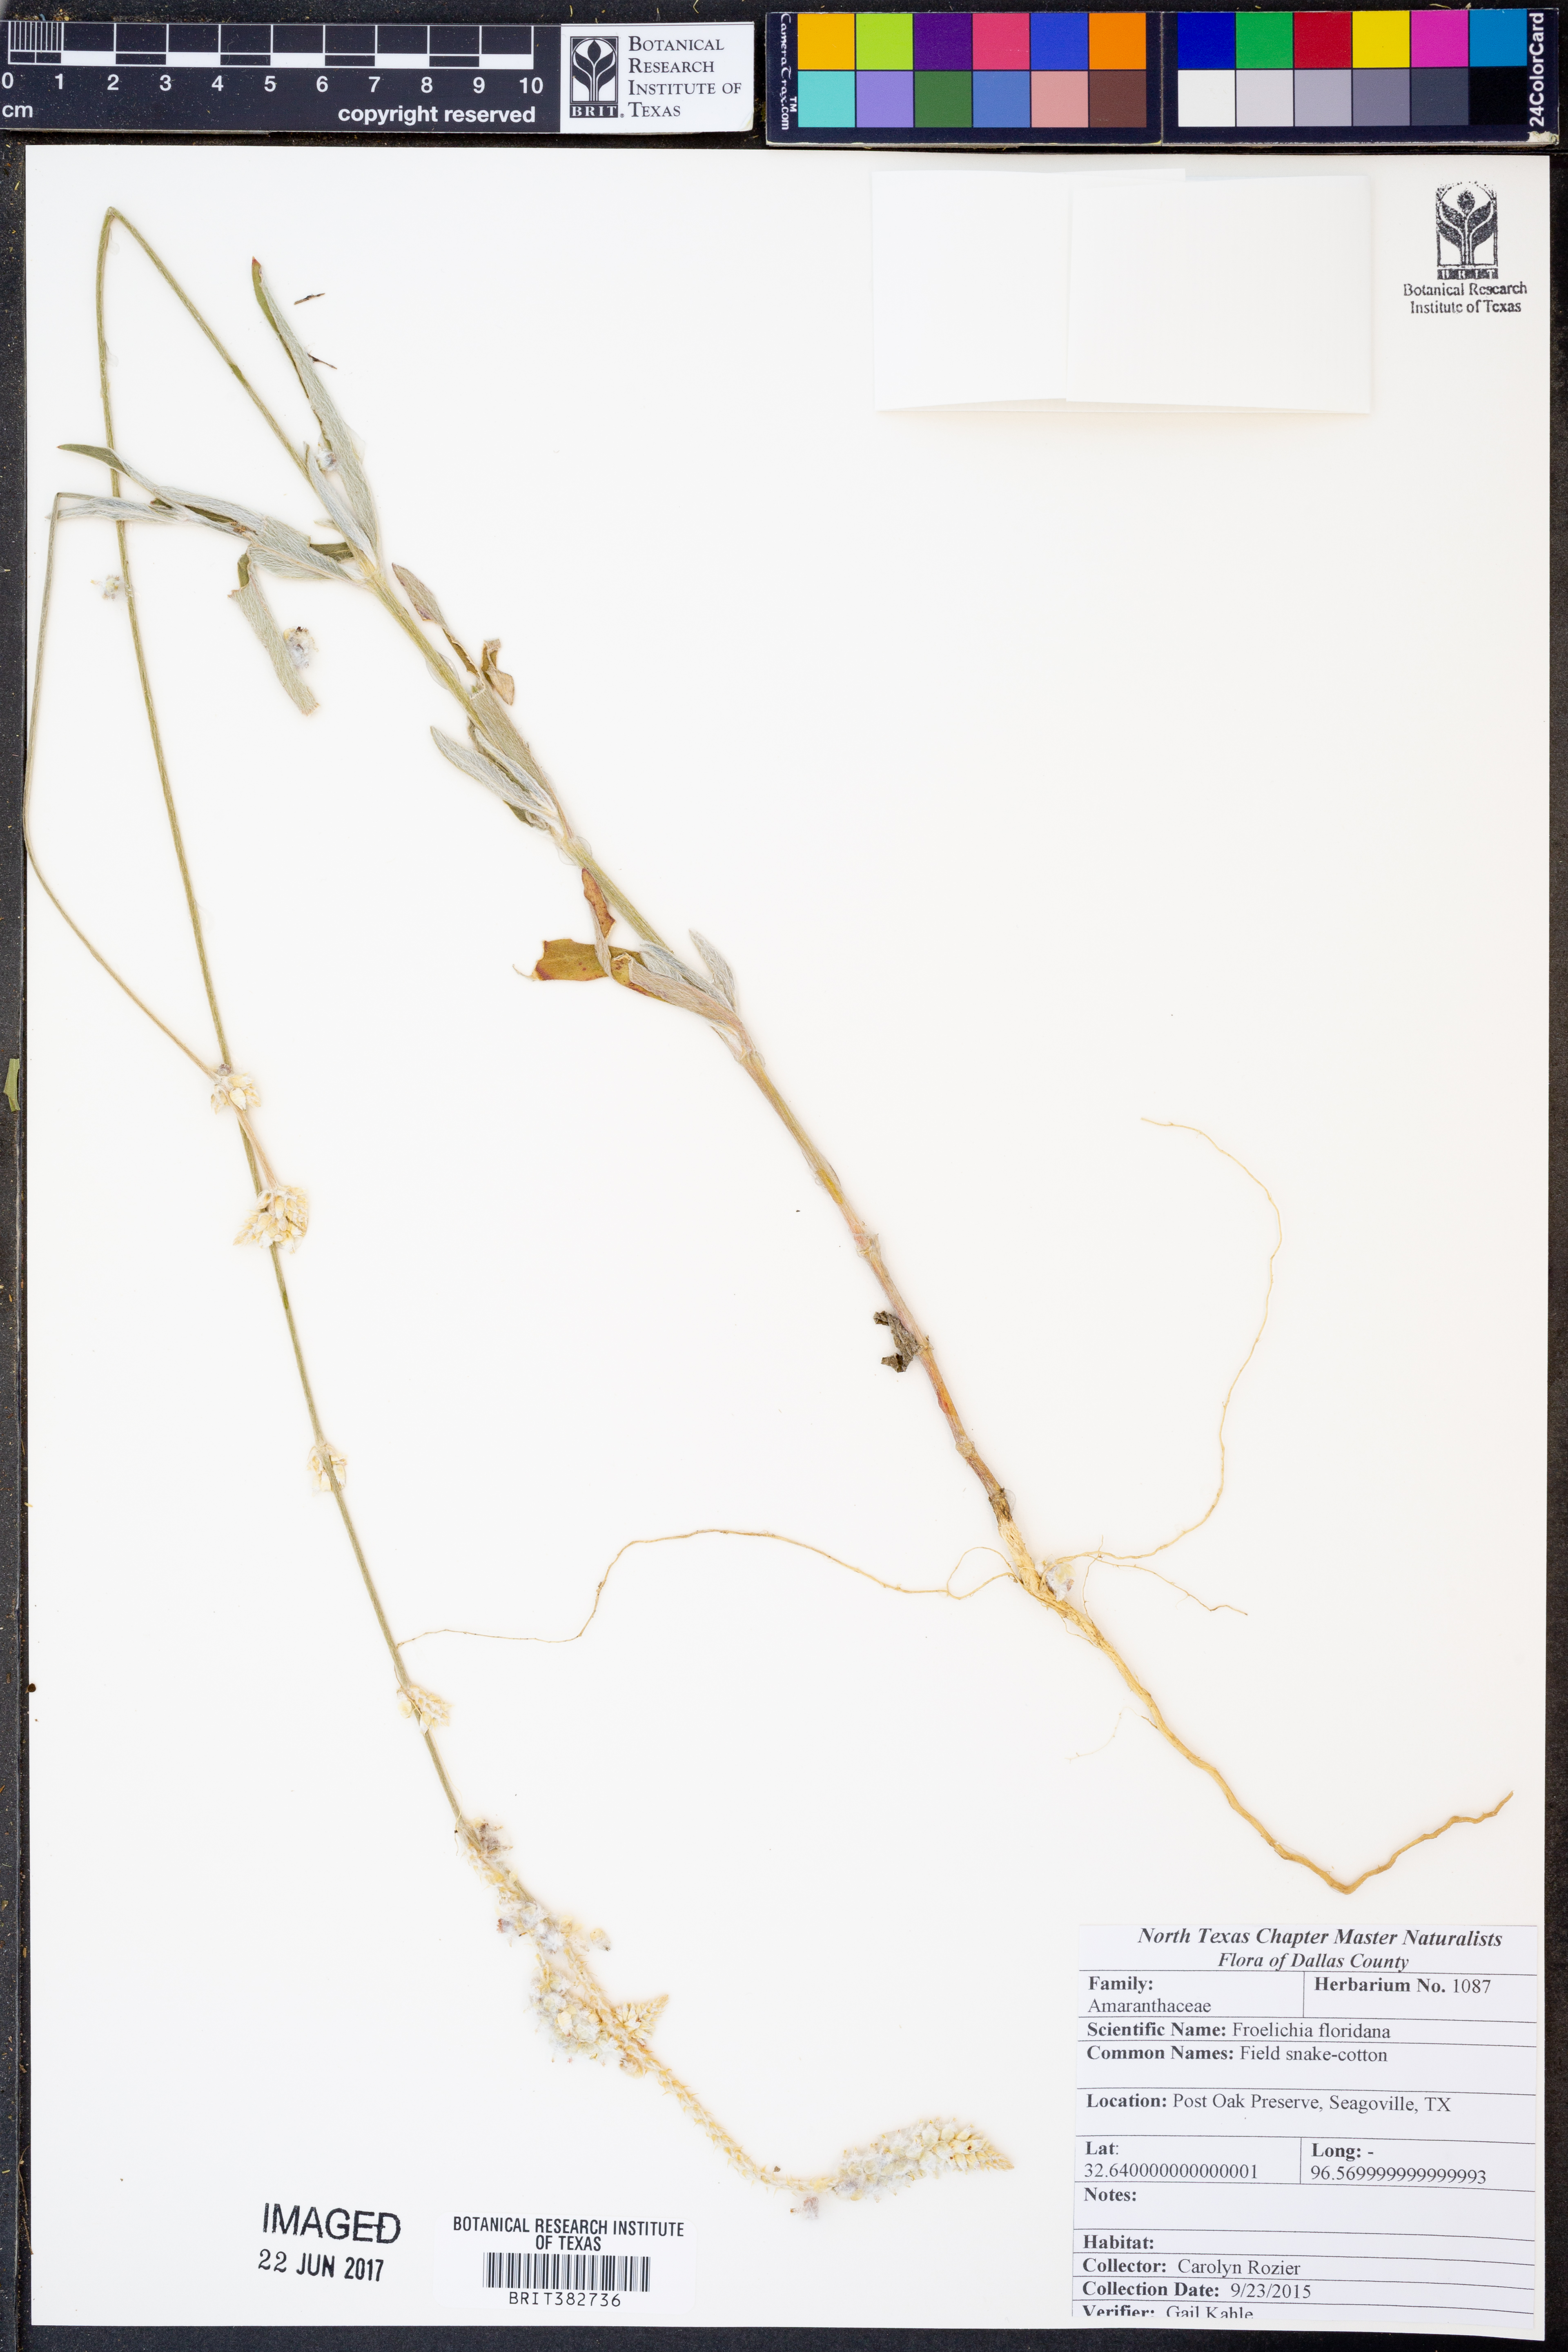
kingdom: Plantae
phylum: Tracheophyta
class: Magnoliopsida
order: Caryophyllales
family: Amaranthaceae
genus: Froelichia
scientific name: Froelichia floridana
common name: Florida snake-cotton
